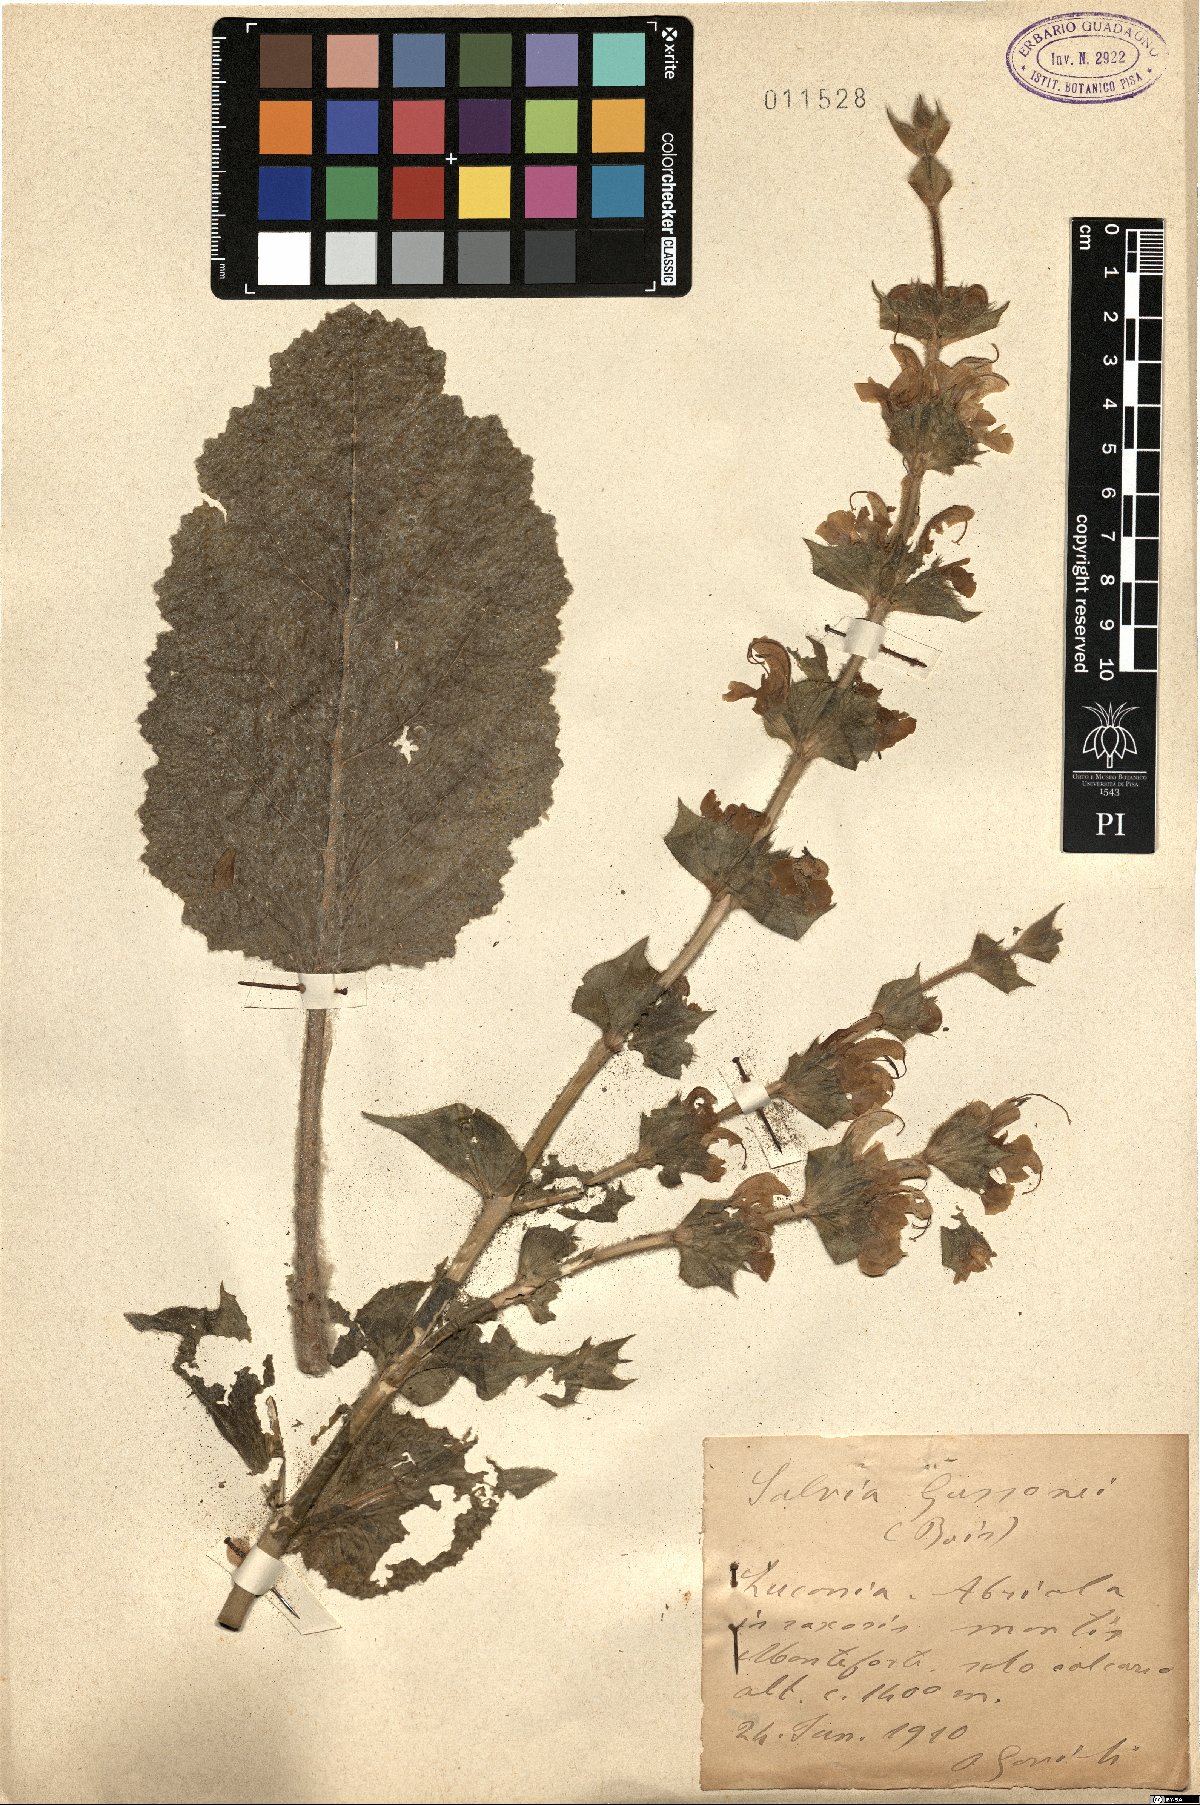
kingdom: Plantae
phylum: Tracheophyta
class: Magnoliopsida
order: Lamiales
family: Lamiaceae
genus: Salvia
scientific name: Salvia gussonei
